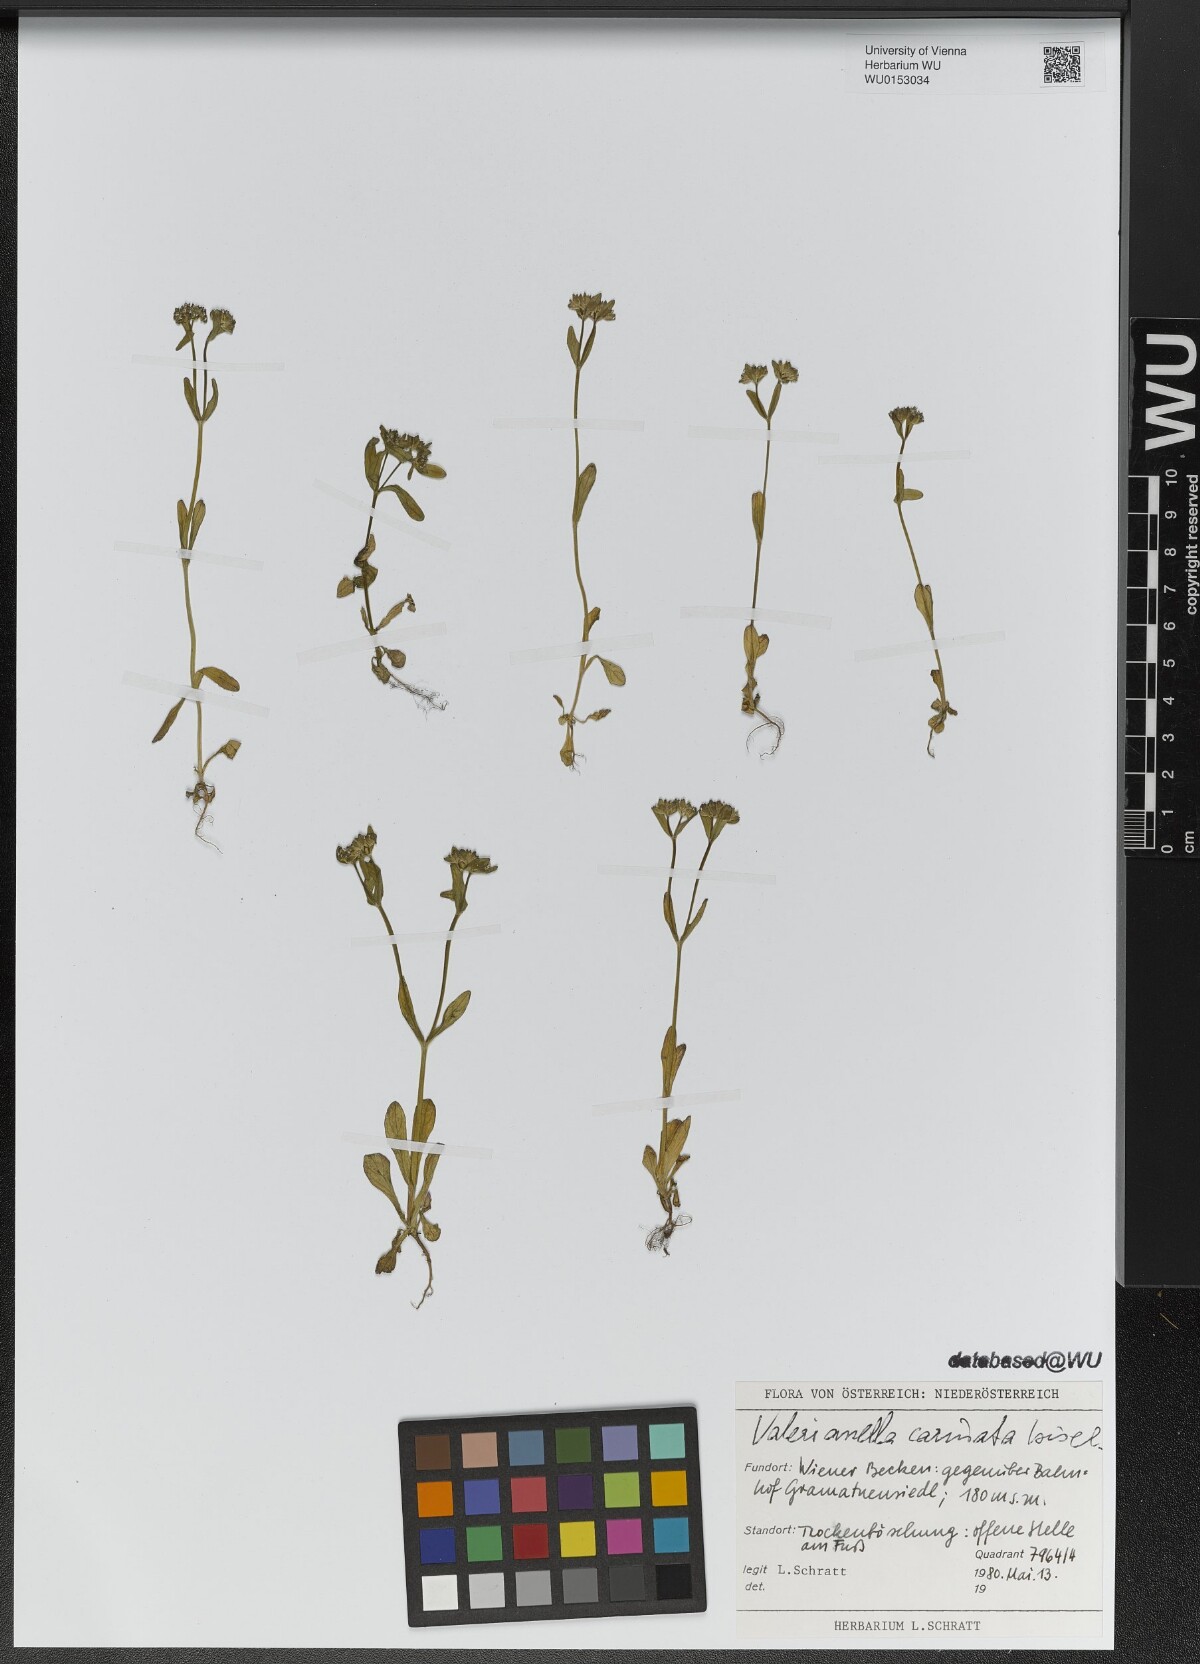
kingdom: Plantae
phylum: Tracheophyta
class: Magnoliopsida
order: Dipsacales
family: Caprifoliaceae
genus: Valerianella
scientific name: Valerianella carinata
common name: Keeled-fruited cornsalad
